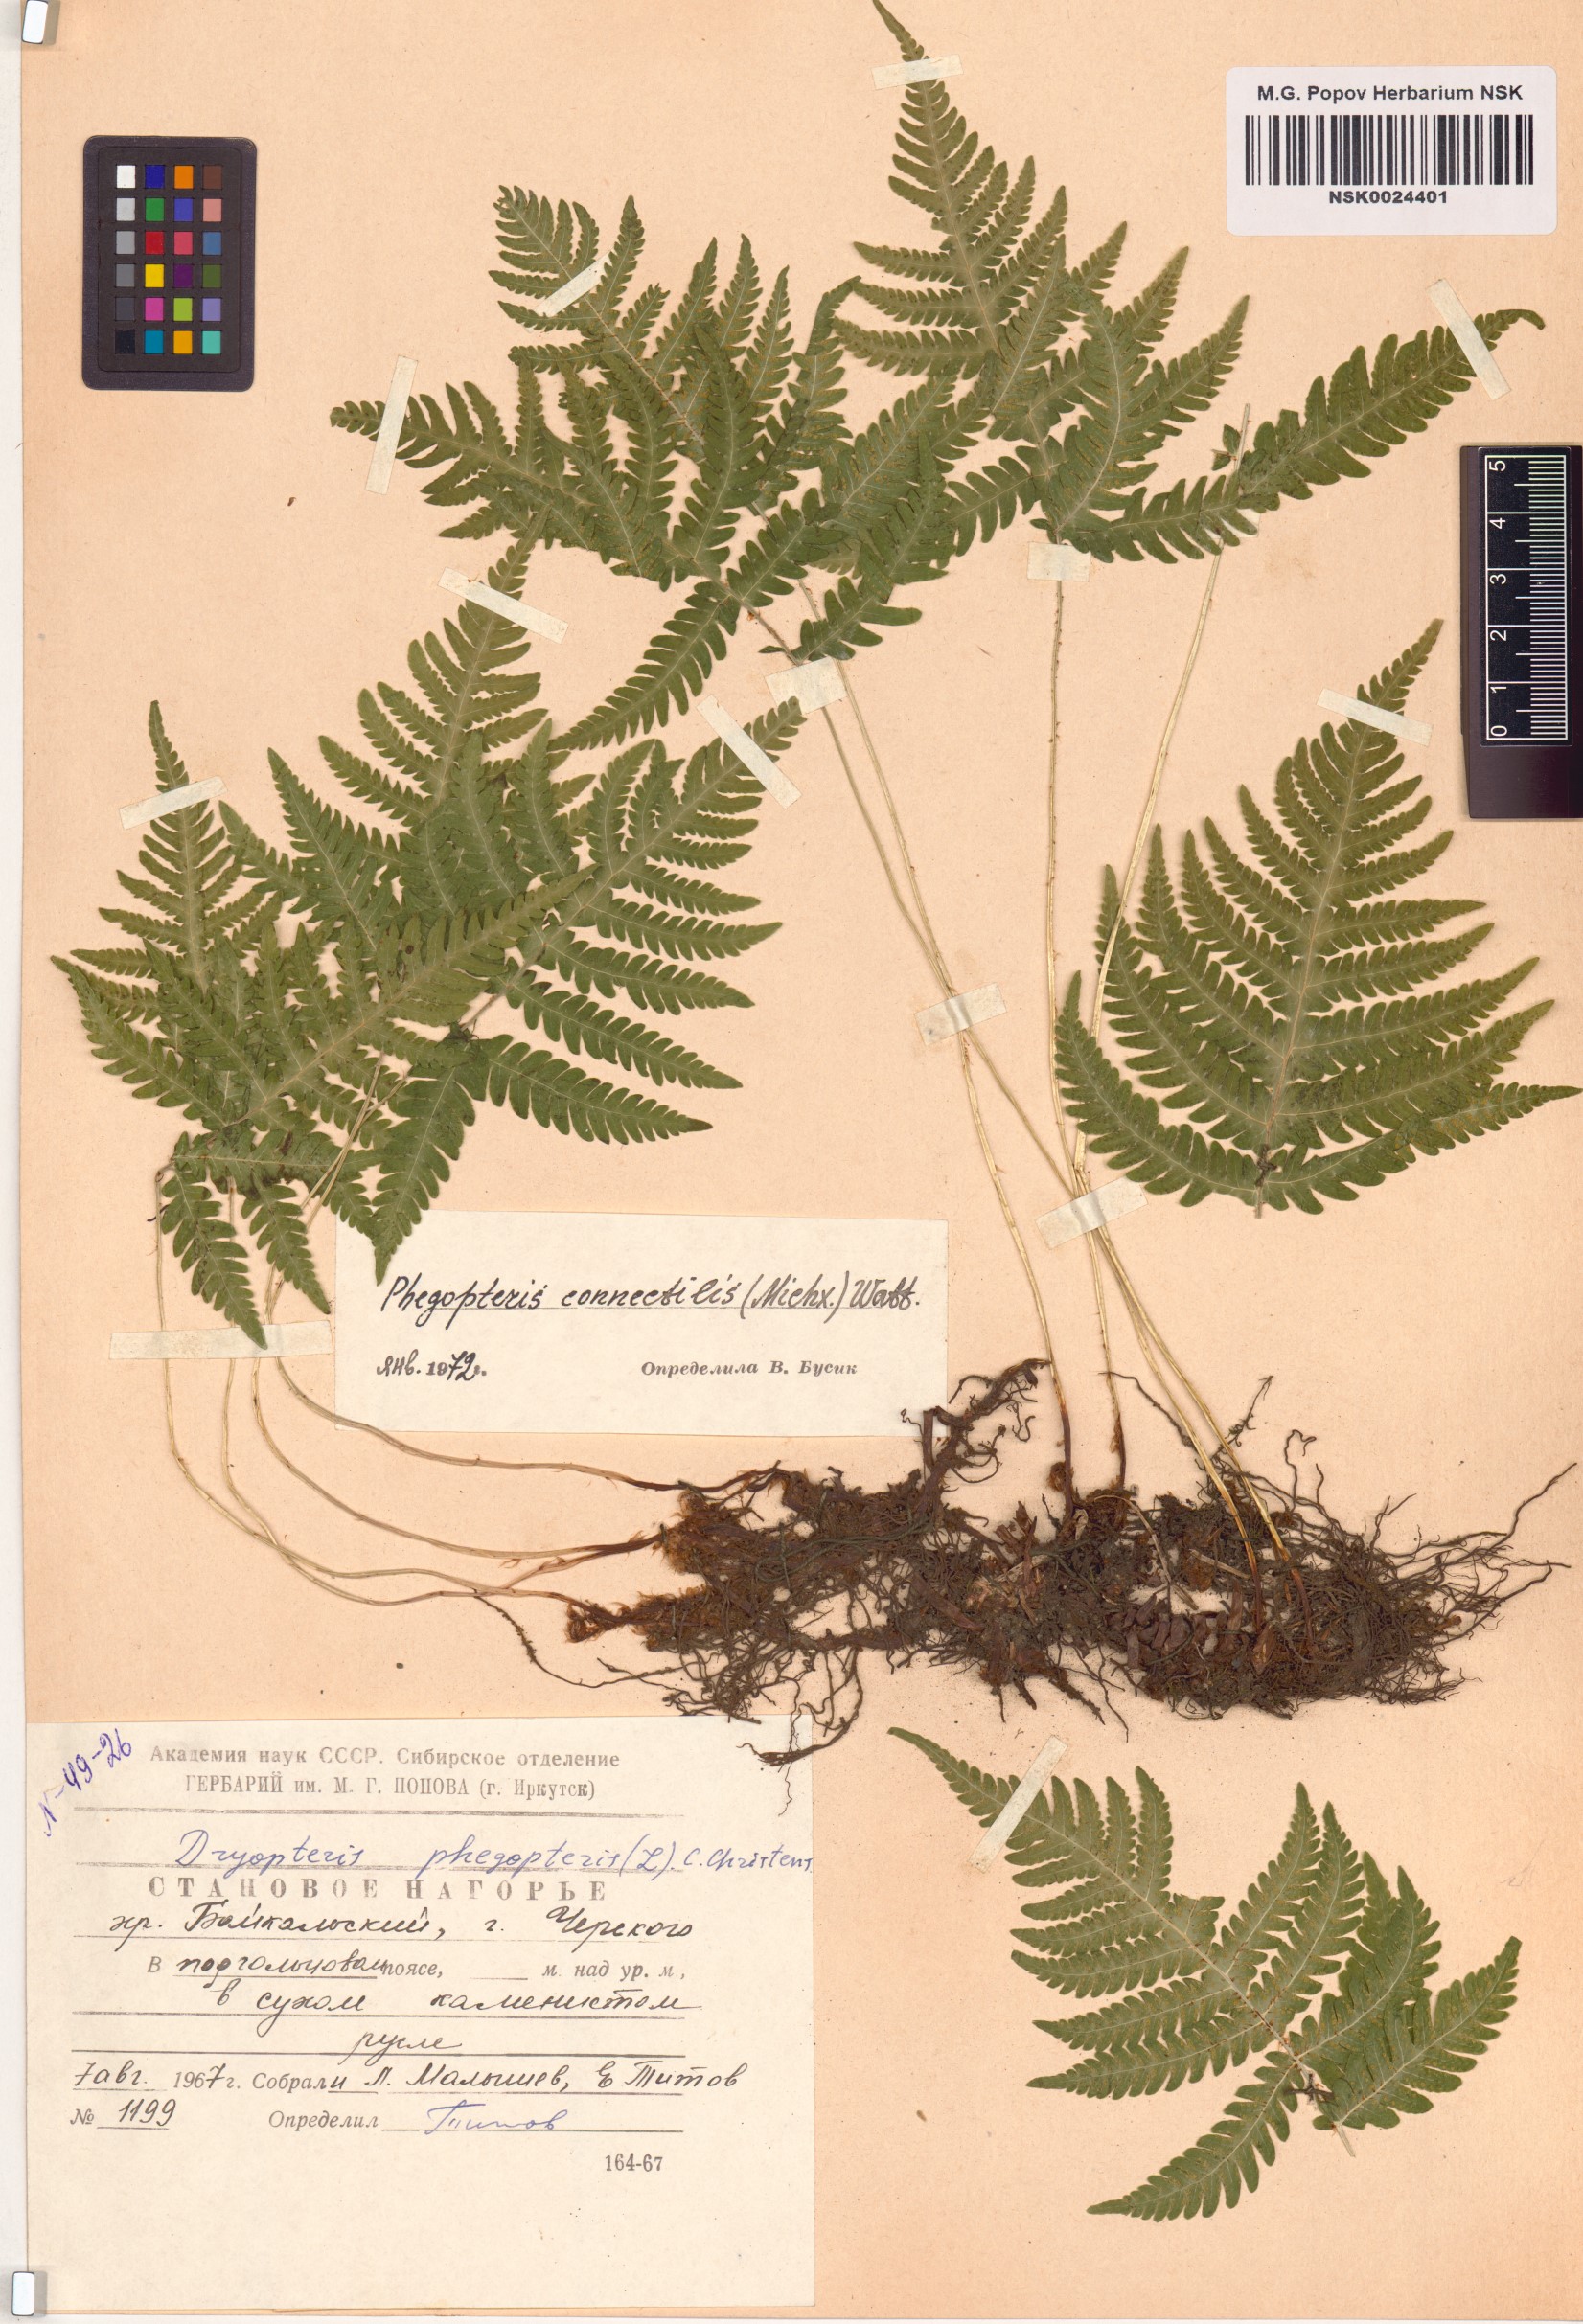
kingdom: Plantae
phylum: Tracheophyta
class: Polypodiopsida
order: Polypodiales
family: Thelypteridaceae
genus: Phegopteris
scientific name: Phegopteris connectilis
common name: Beech fern
